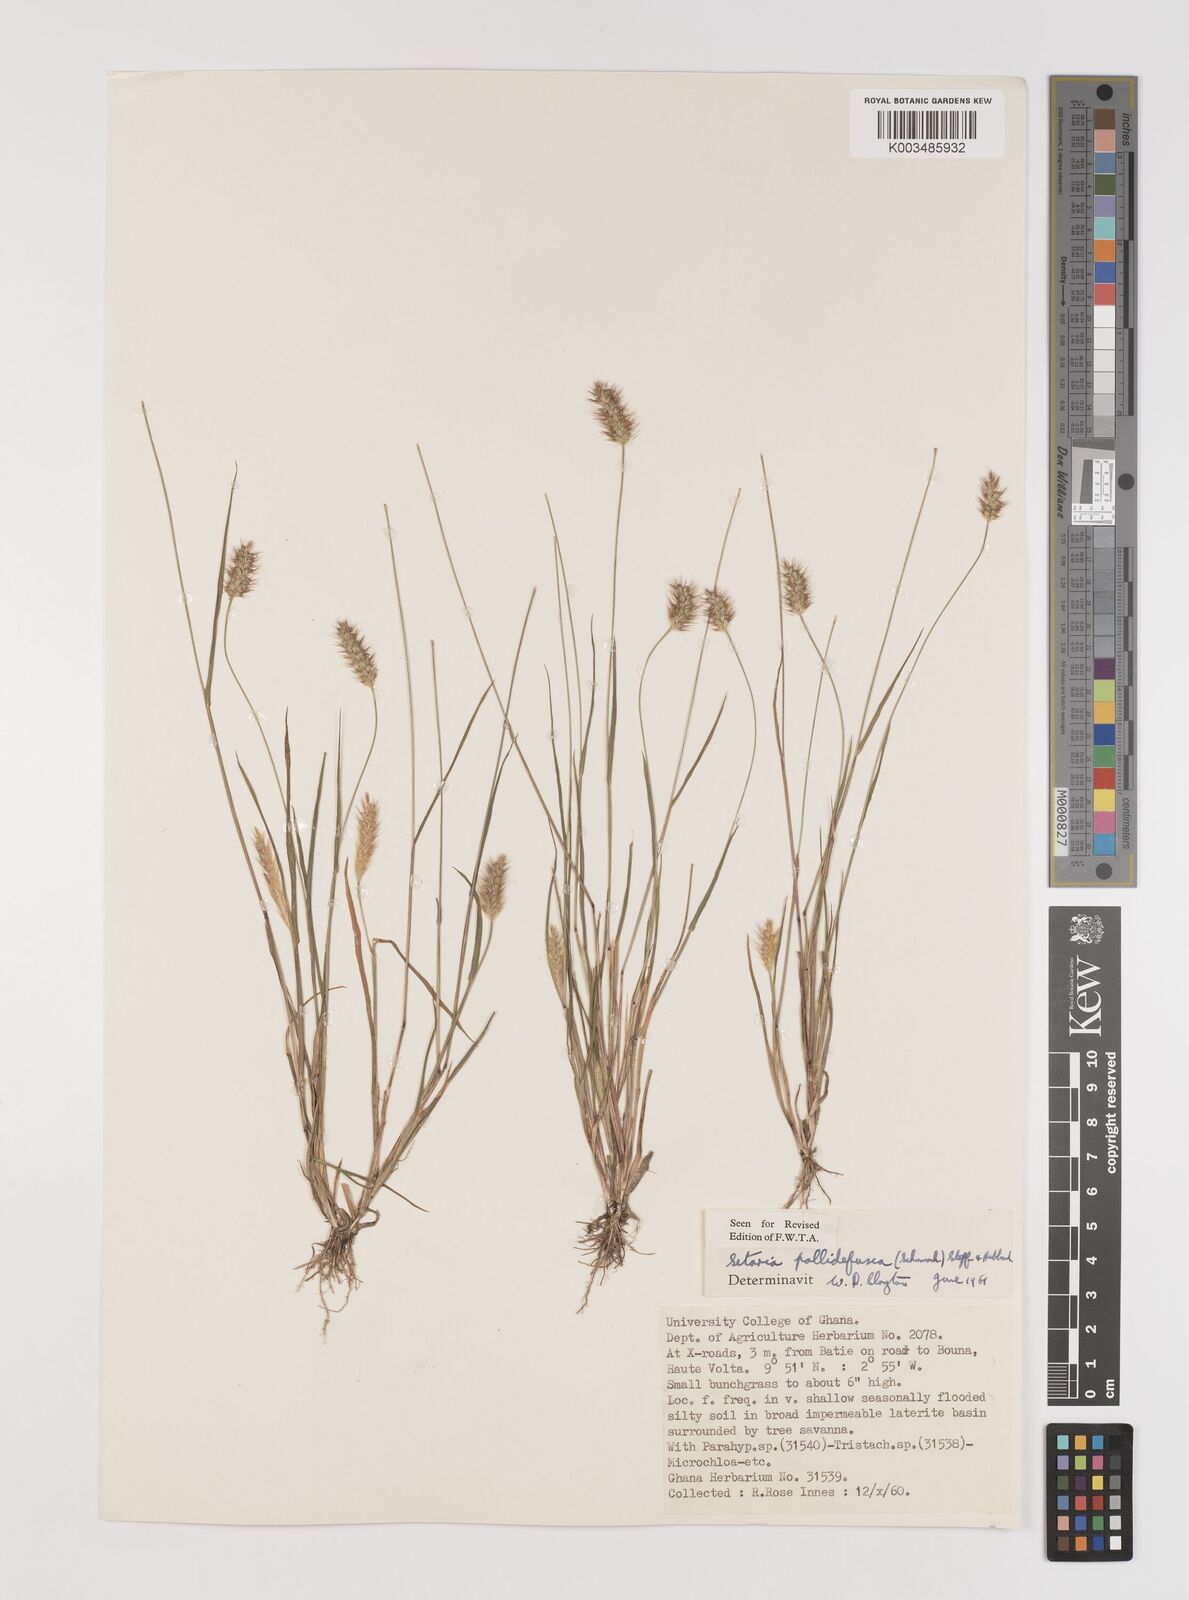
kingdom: Plantae
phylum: Tracheophyta
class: Liliopsida
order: Poales
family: Poaceae
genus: Setaria
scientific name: Setaria pumila
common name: Yellow bristle-grass
